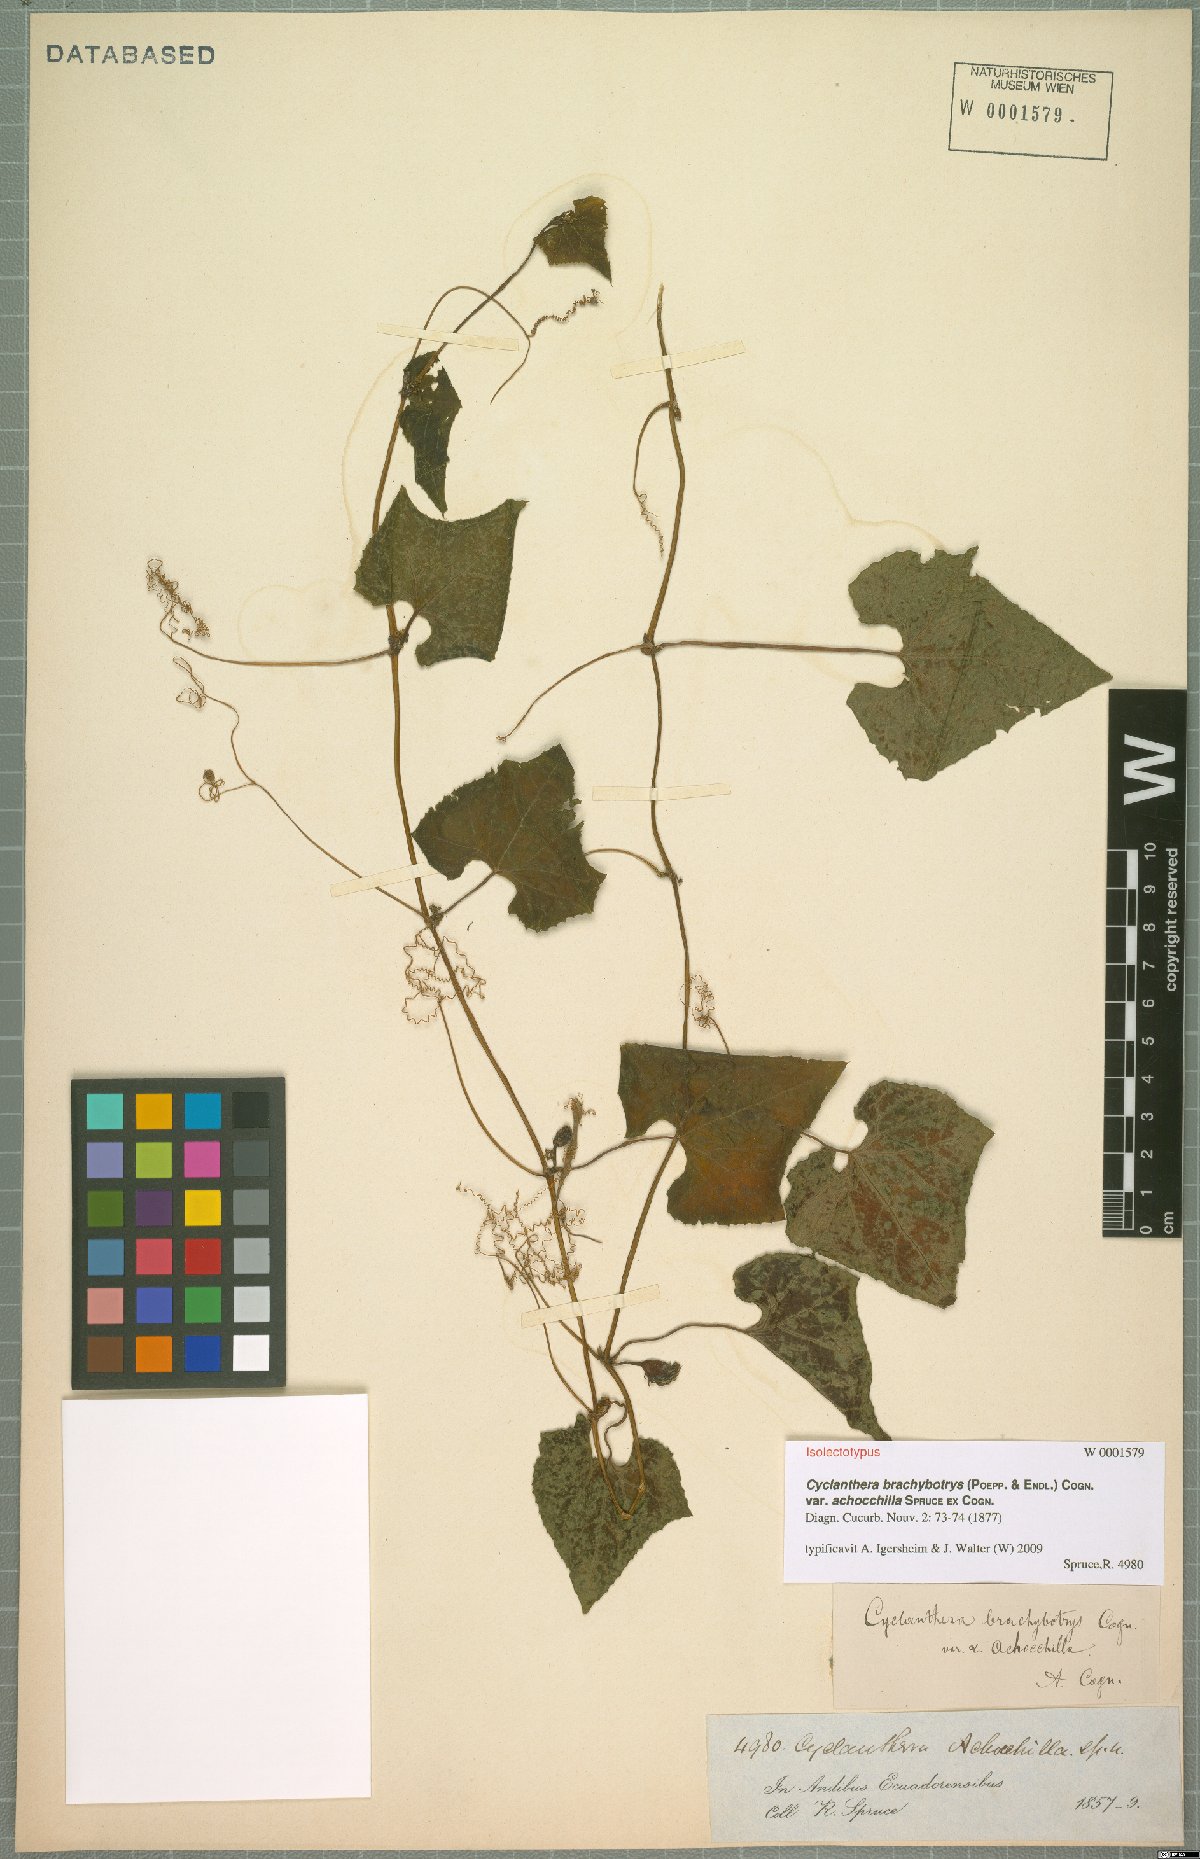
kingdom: Plantae
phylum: Tracheophyta
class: Magnoliopsida
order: Cucurbitales
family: Cucurbitaceae
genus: Cyclanthera
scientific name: Cyclanthera brachybotrys
